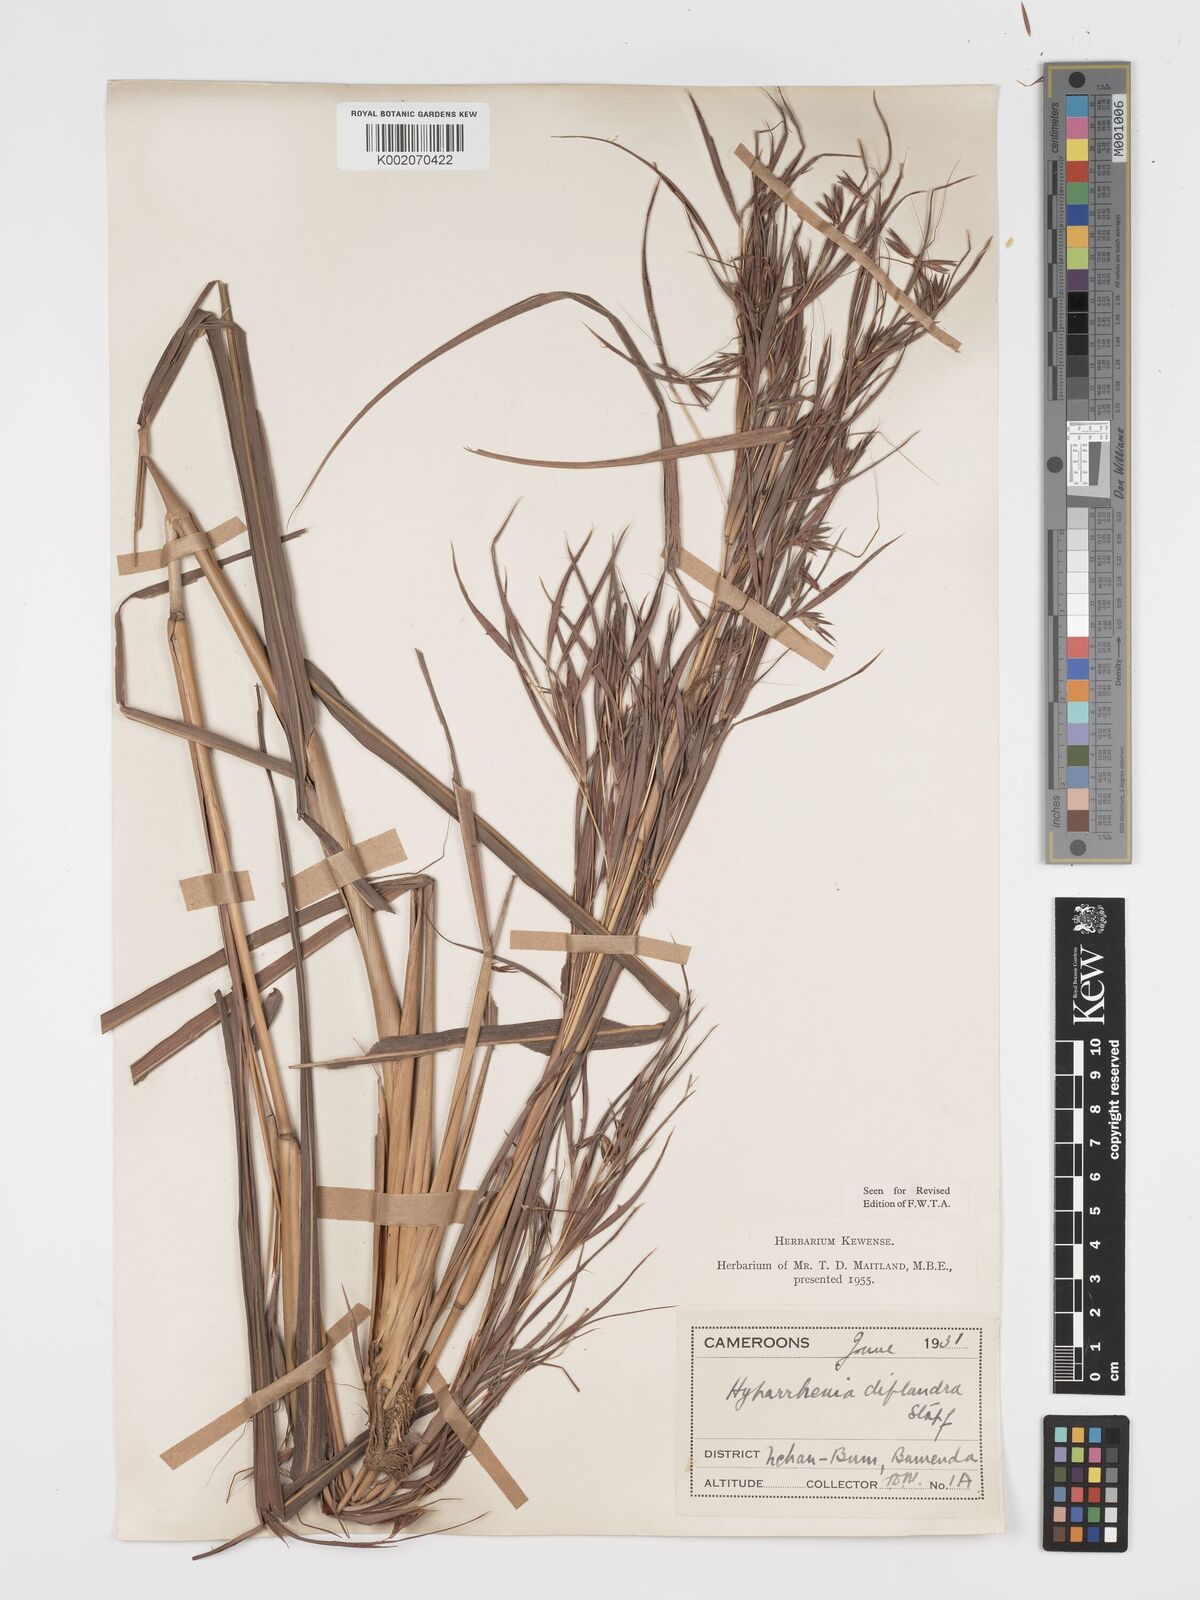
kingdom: Plantae
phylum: Tracheophyta
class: Liliopsida
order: Poales
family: Poaceae
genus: Hyparrhenia
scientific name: Hyparrhenia diplandra
